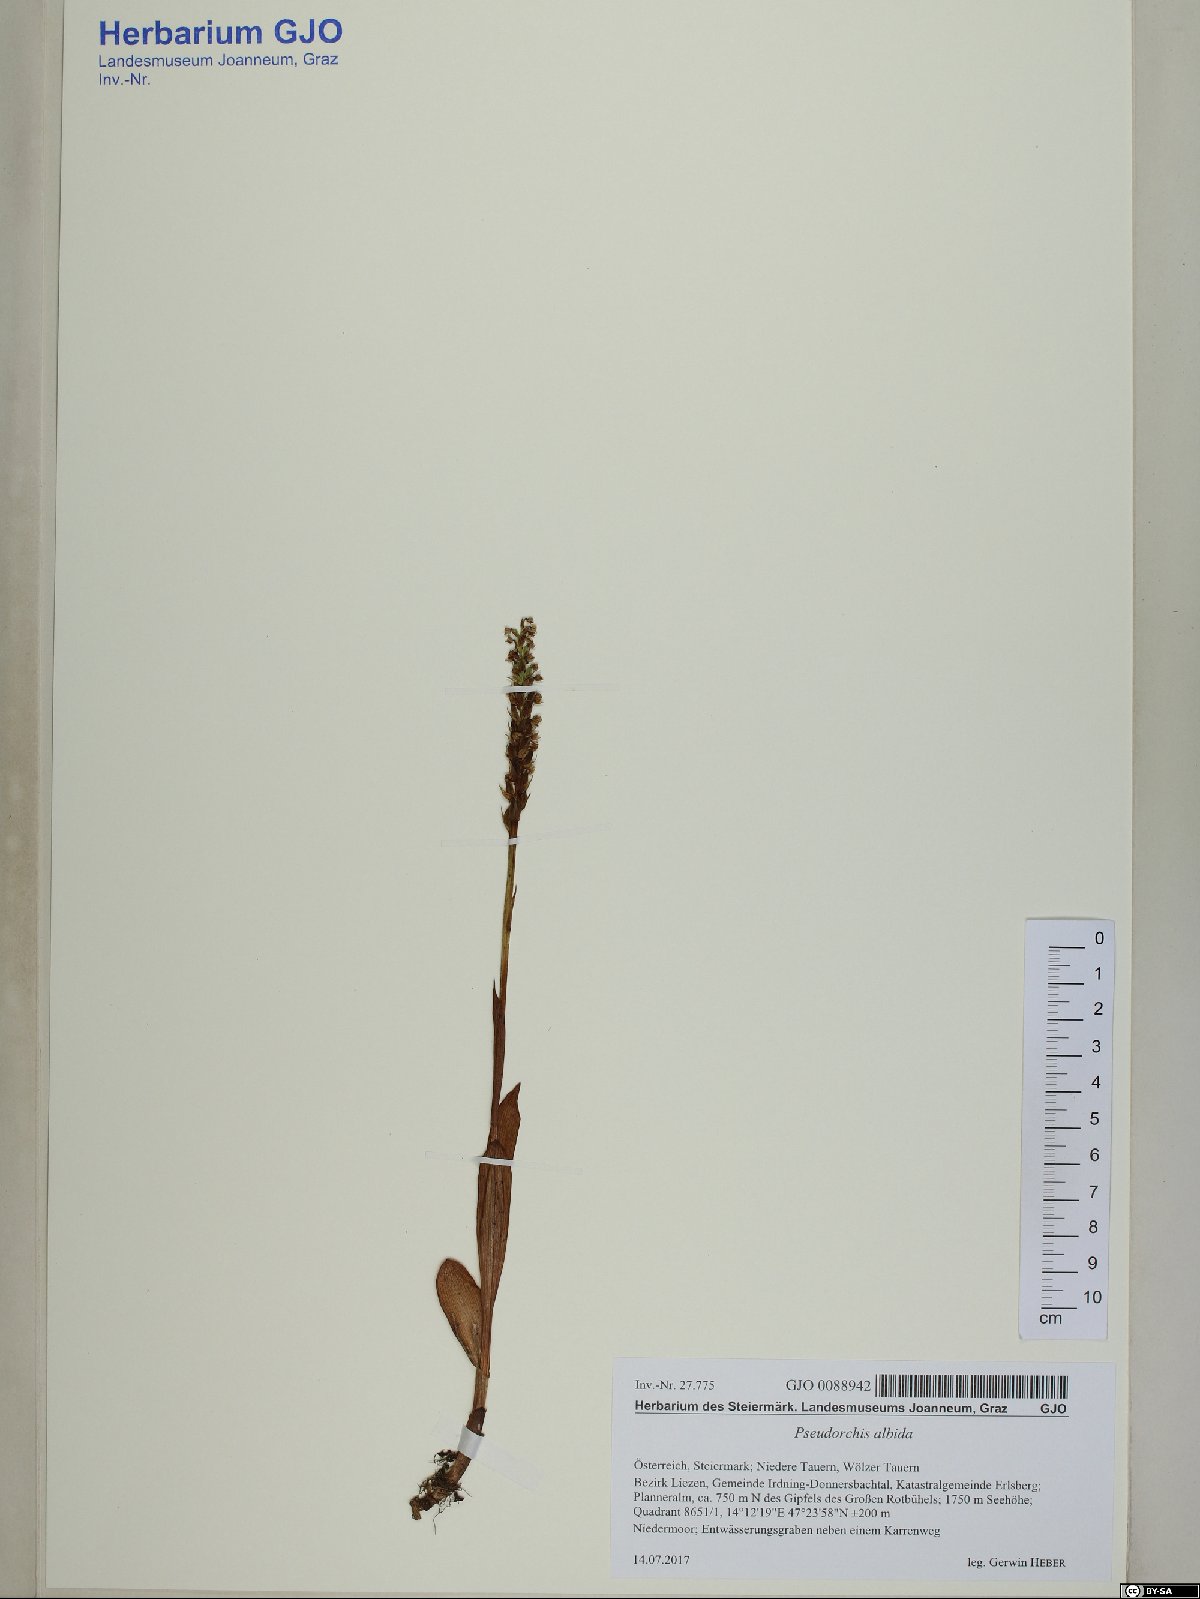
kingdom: Plantae
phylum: Tracheophyta
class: Liliopsida
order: Asparagales
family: Orchidaceae
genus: Pseudorchis
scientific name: Pseudorchis albida
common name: Small-white orchid
